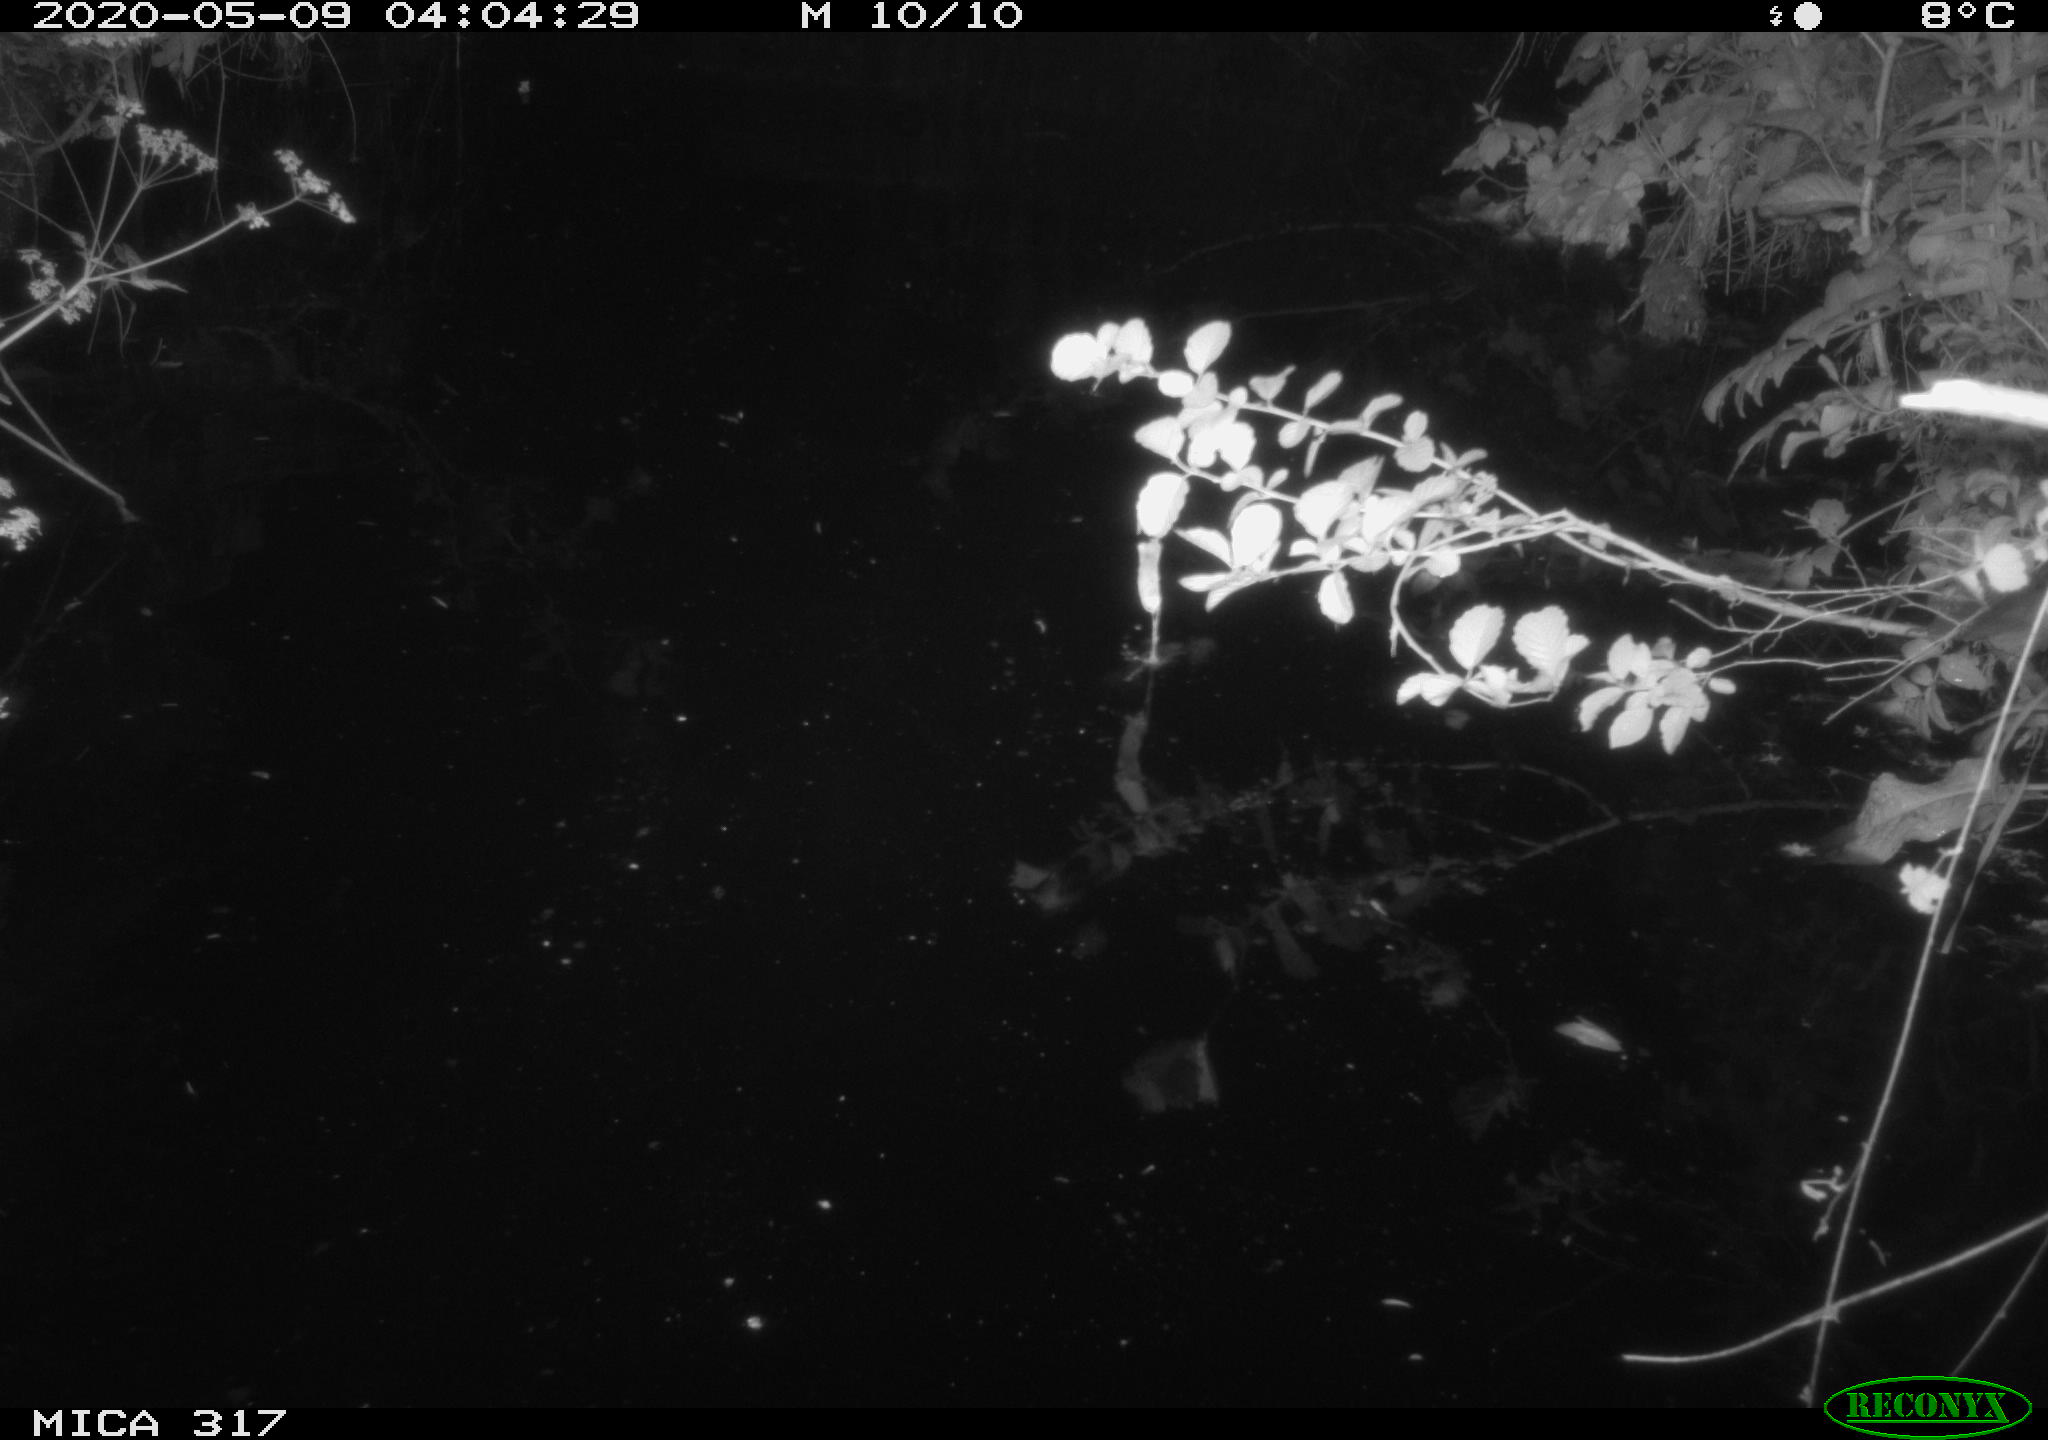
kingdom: Animalia
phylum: Chordata
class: Aves
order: Anseriformes
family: Anatidae
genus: Anas
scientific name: Anas platyrhynchos
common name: Mallard
